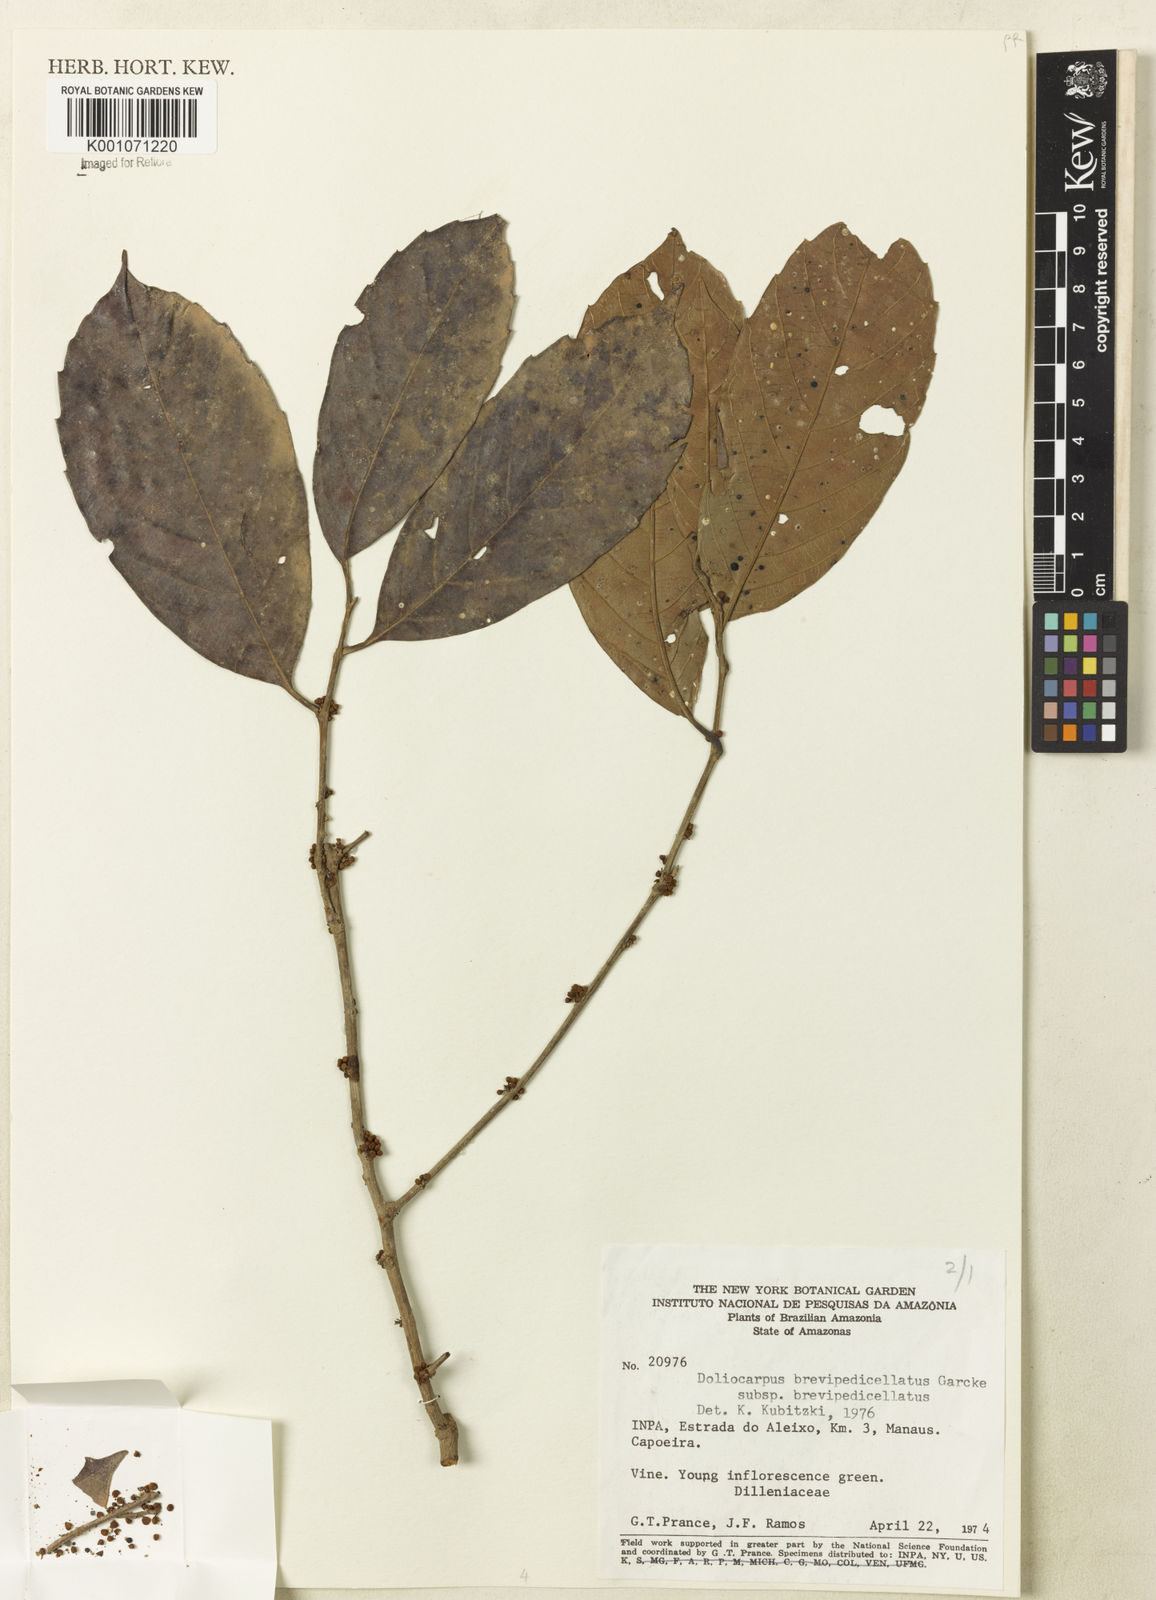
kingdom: Plantae
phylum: Tracheophyta
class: Magnoliopsida
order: Dilleniales
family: Dilleniaceae
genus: Doliocarpus
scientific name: Doliocarpus brevipedicellatus
